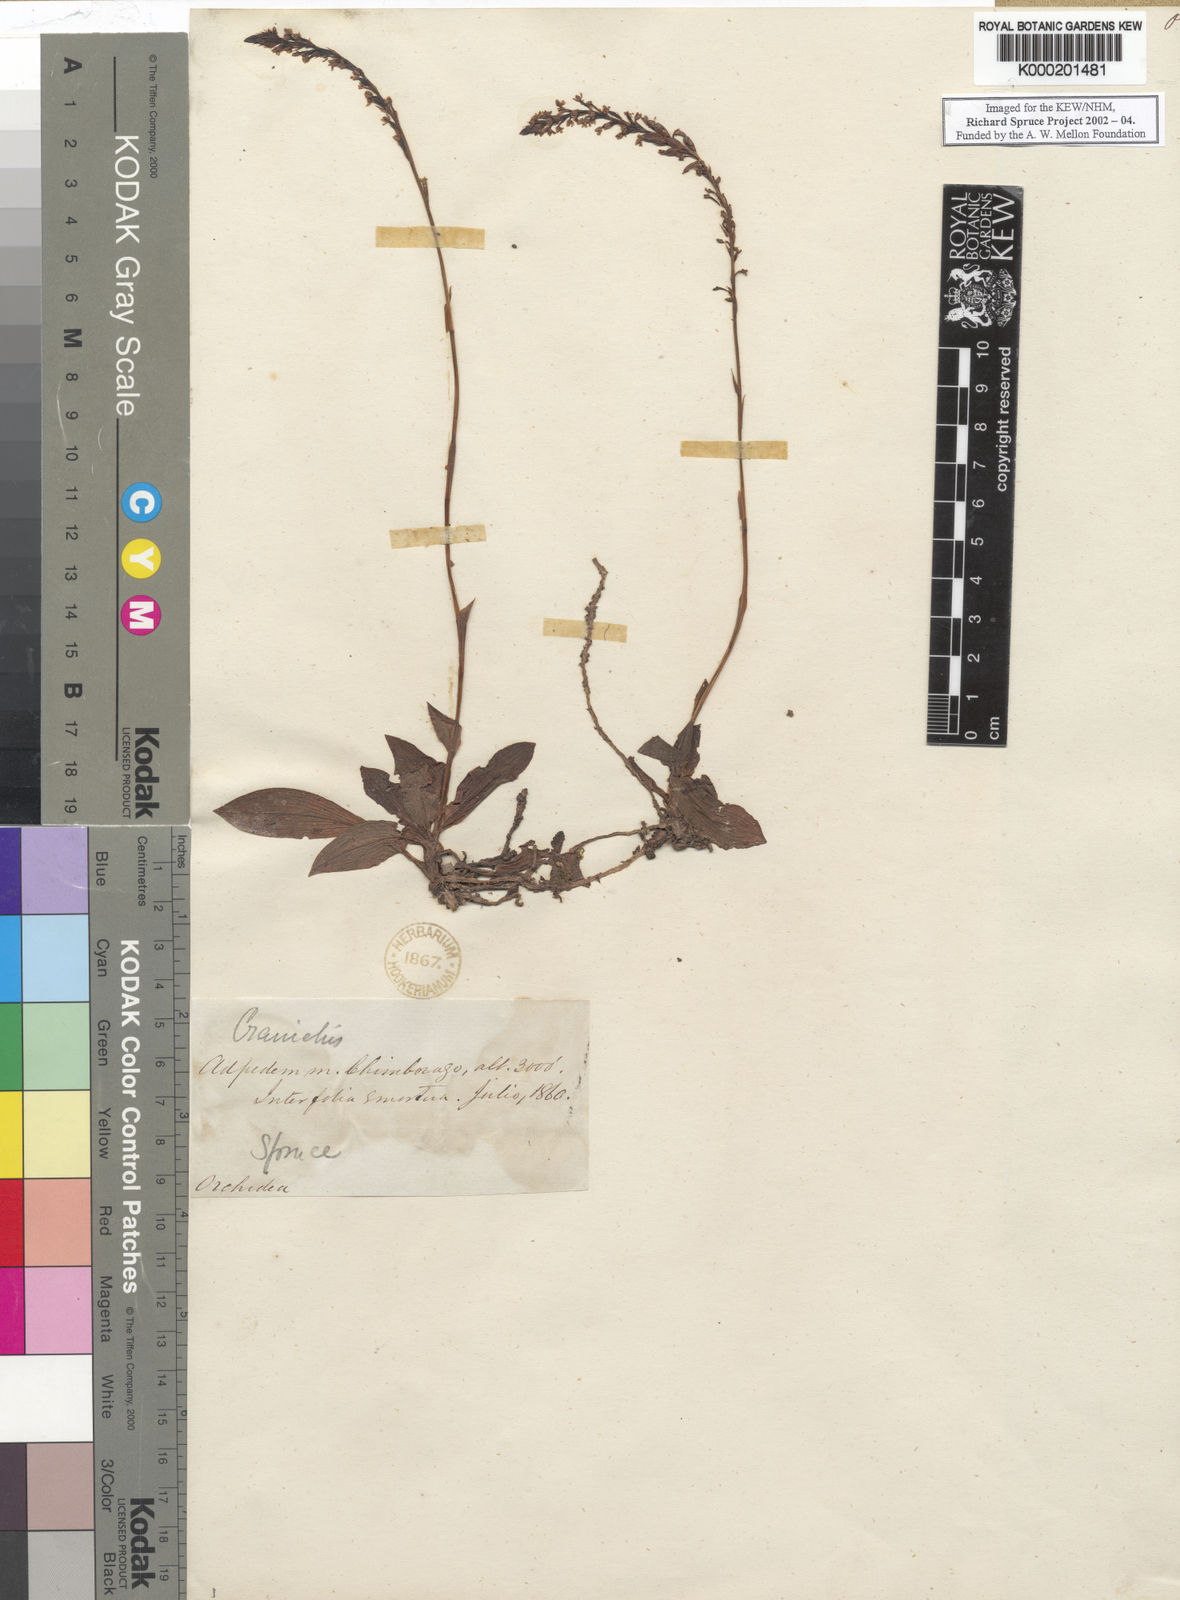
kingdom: Plantae
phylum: Tracheophyta
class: Liliopsida
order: Asparagales
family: Orchidaceae
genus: Cranichis
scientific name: Cranichis
